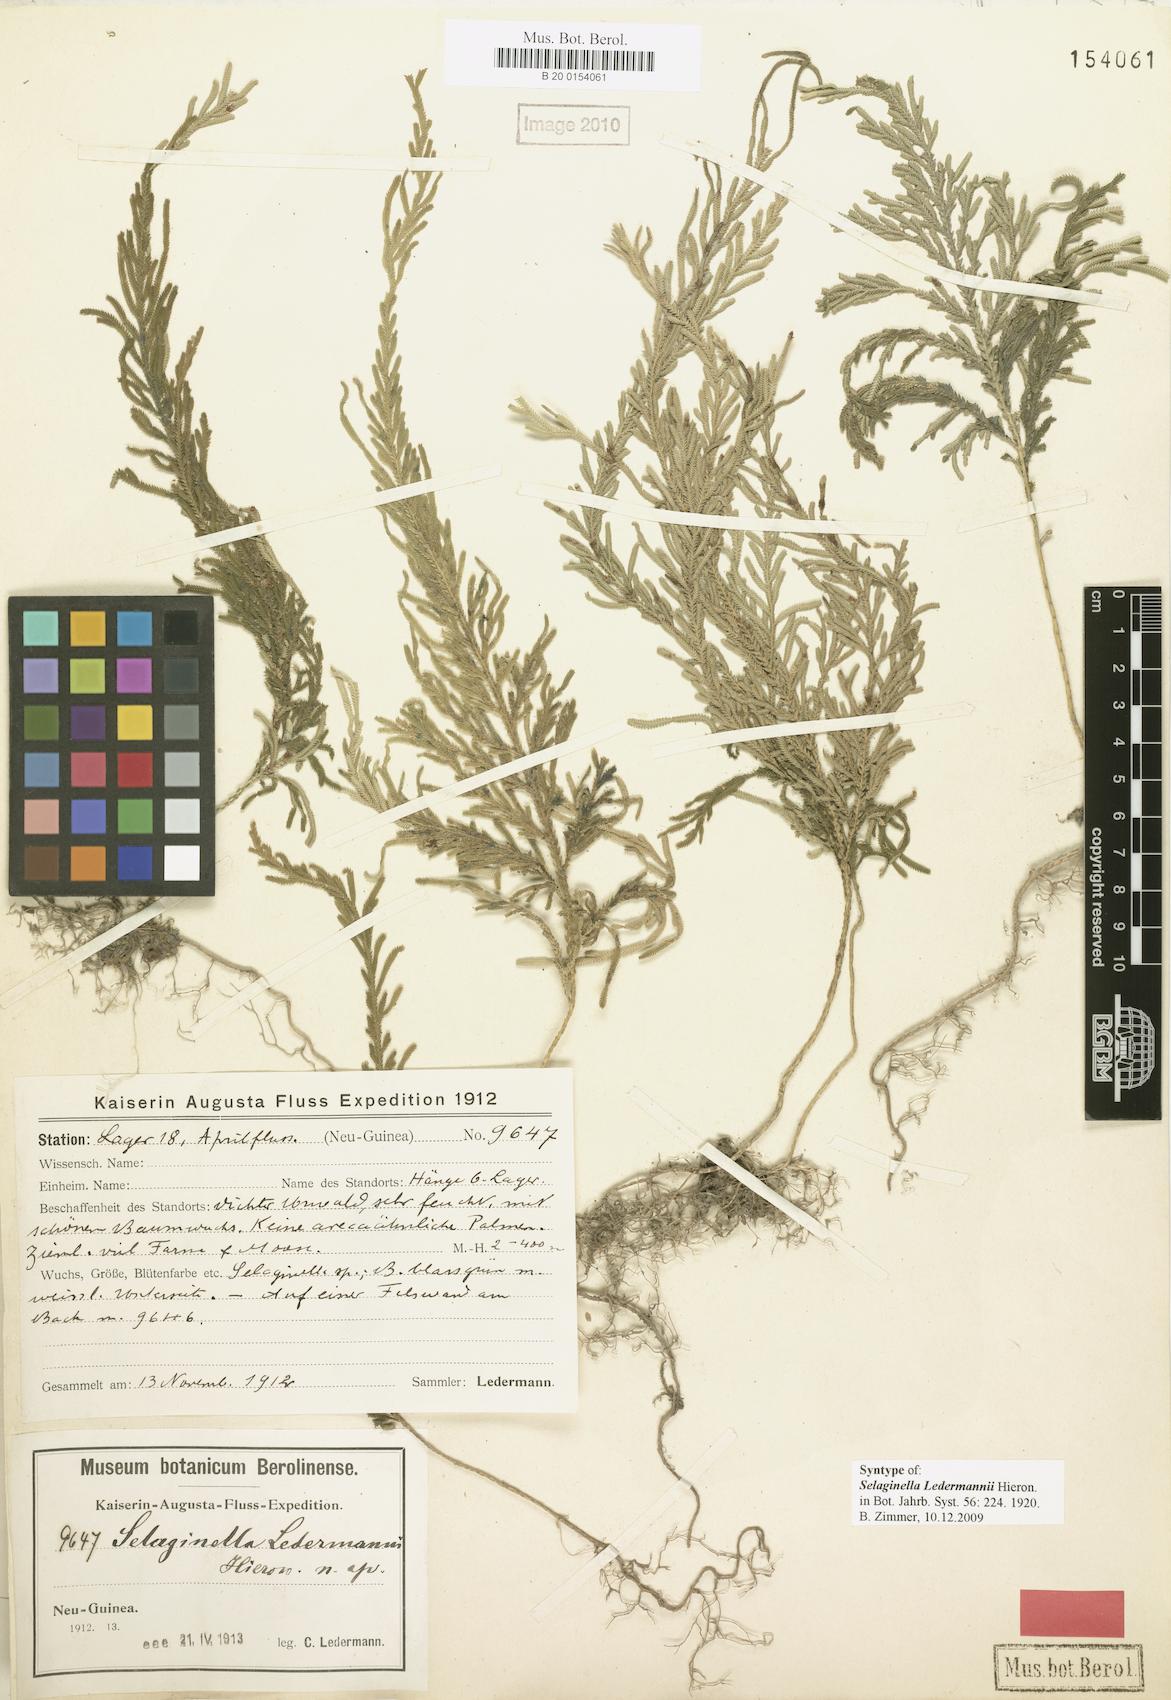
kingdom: Plantae
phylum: Tracheophyta
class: Lycopodiopsida
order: Selaginellales
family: Selaginellaceae
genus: Selaginella
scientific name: Selaginella ledermannii
